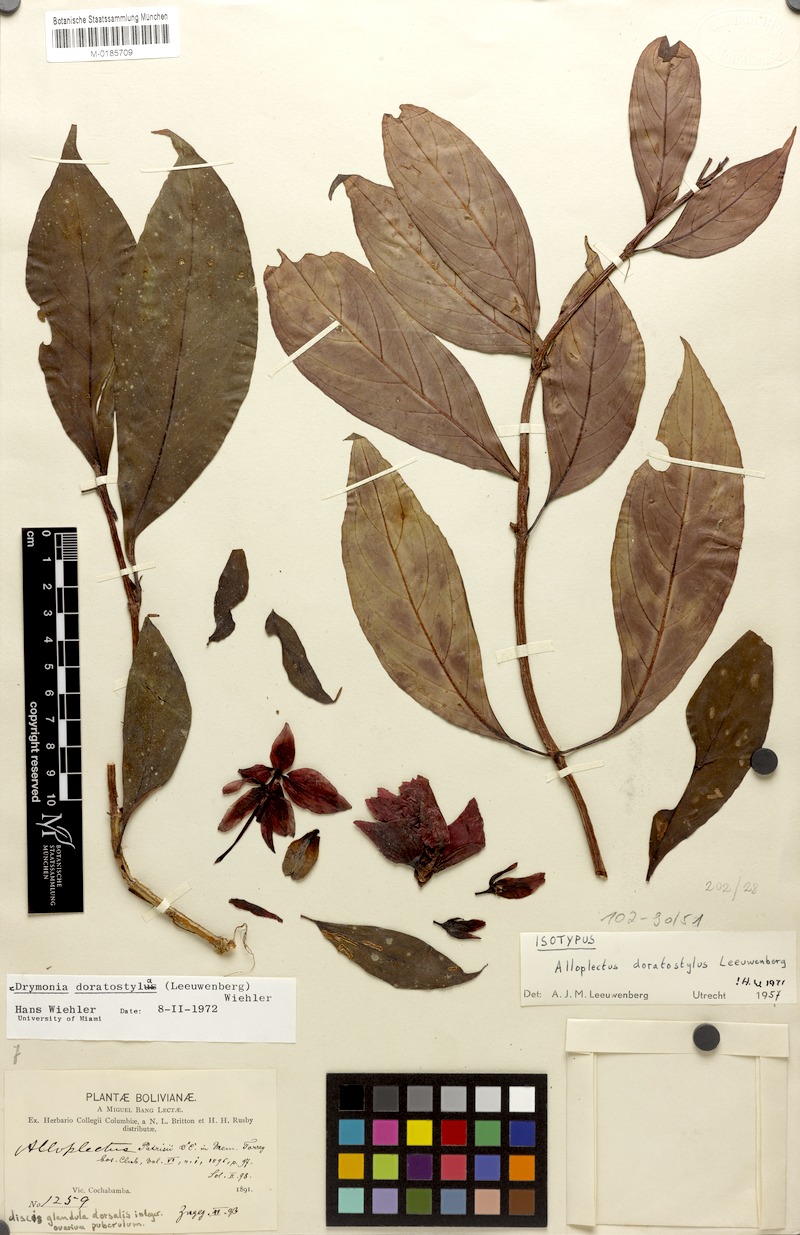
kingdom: Plantae
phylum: Tracheophyta
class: Magnoliopsida
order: Lamiales
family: Gesneriaceae
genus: Drymonia
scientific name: Drymonia doratostyla
